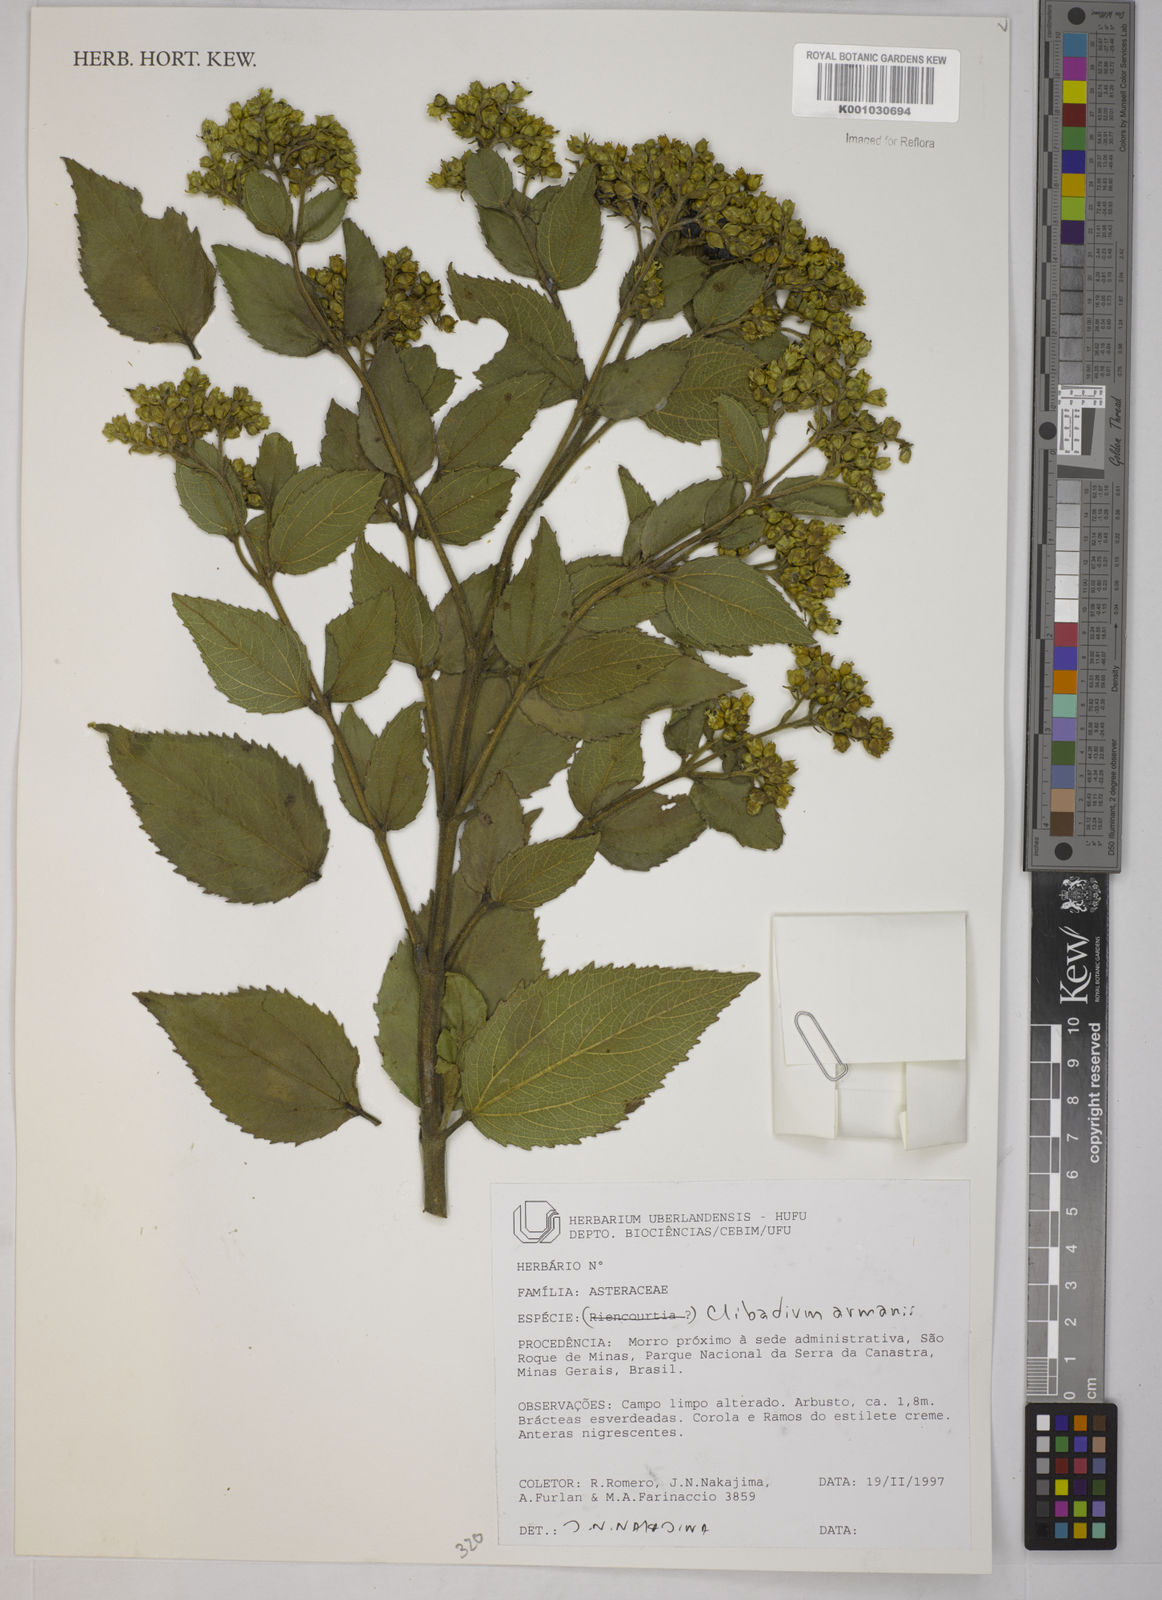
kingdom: Plantae
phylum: Tracheophyta
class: Magnoliopsida
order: Asterales
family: Asteraceae
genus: Clibadium
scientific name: Clibadium armanii
